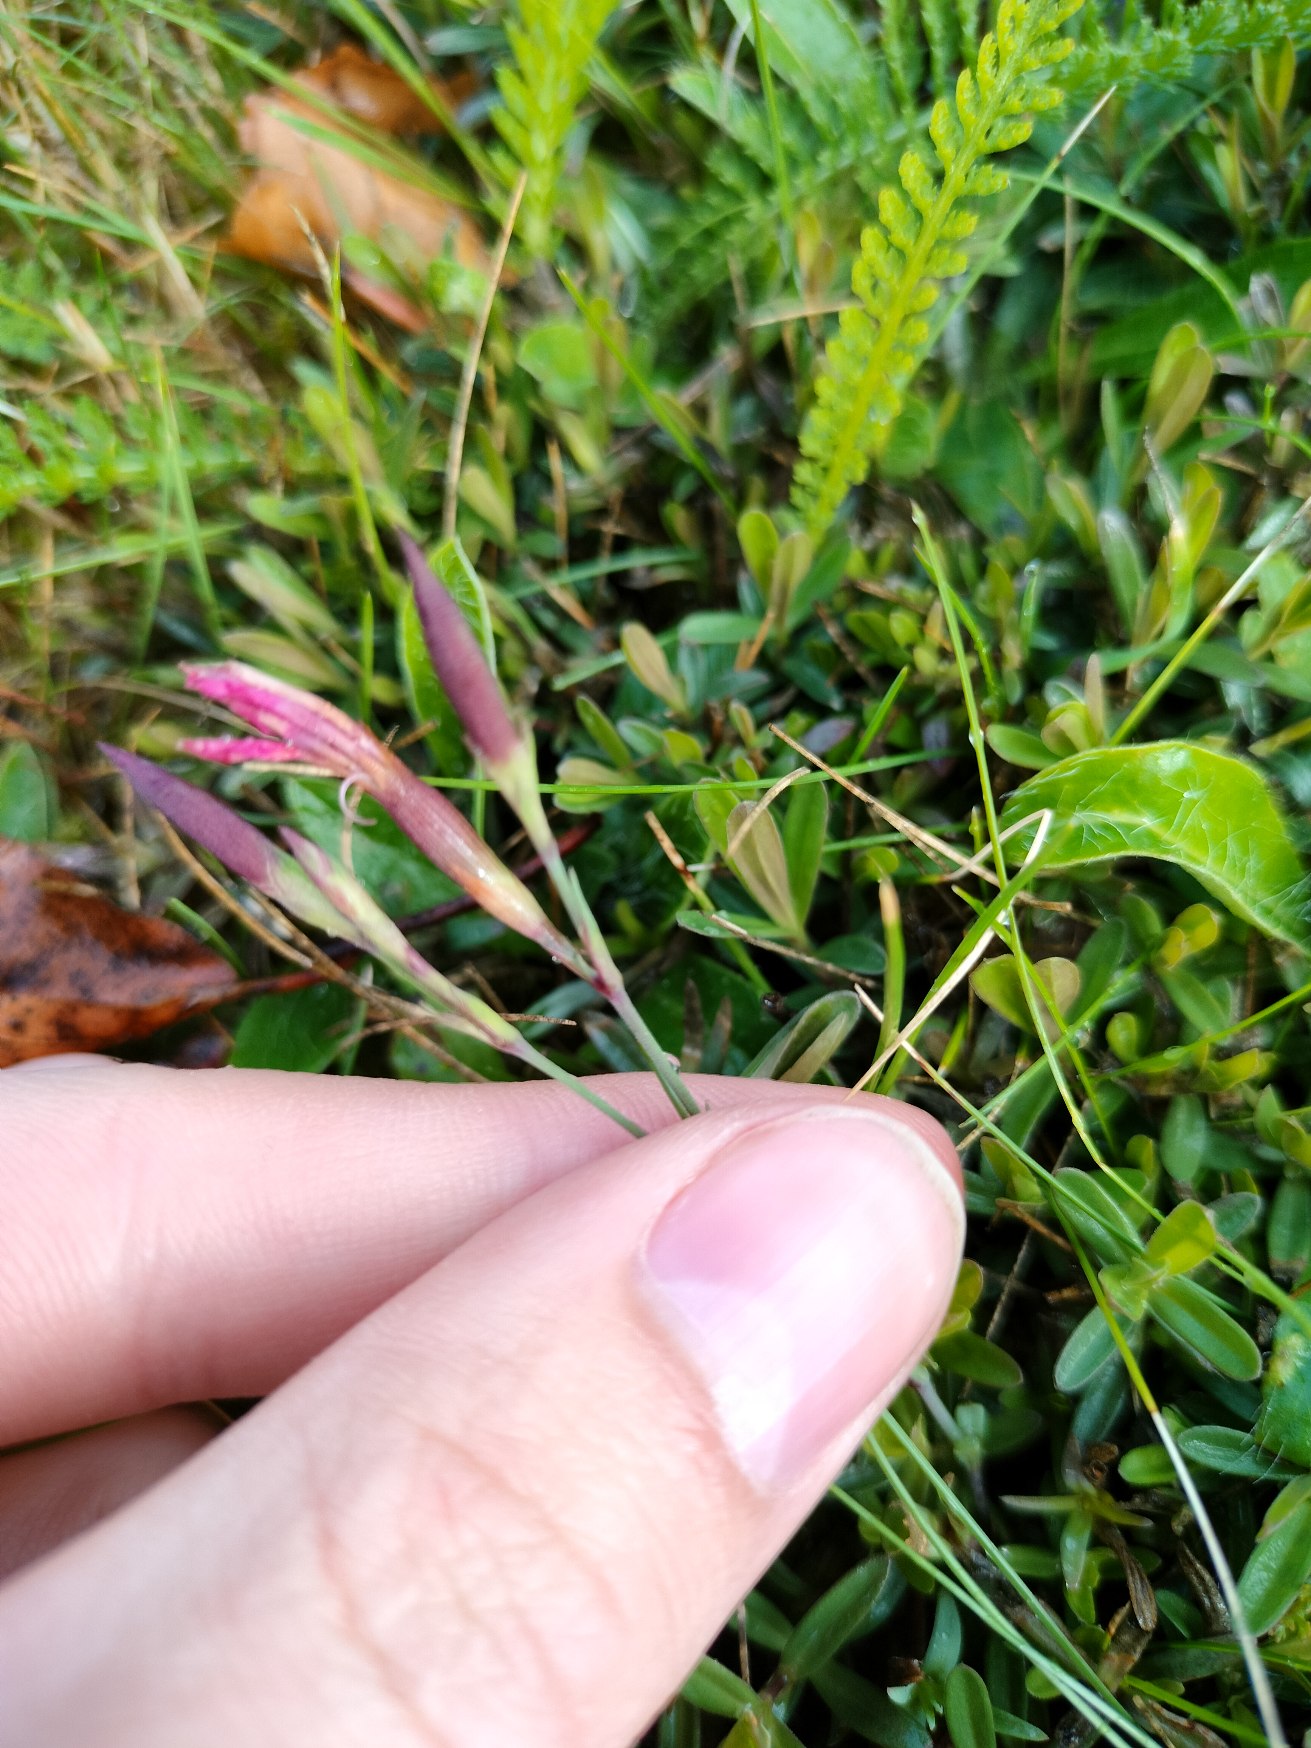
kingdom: Plantae
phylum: Tracheophyta
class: Magnoliopsida
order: Caryophyllales
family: Caryophyllaceae
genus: Dianthus
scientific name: Dianthus deltoides
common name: Bakke-nellike
